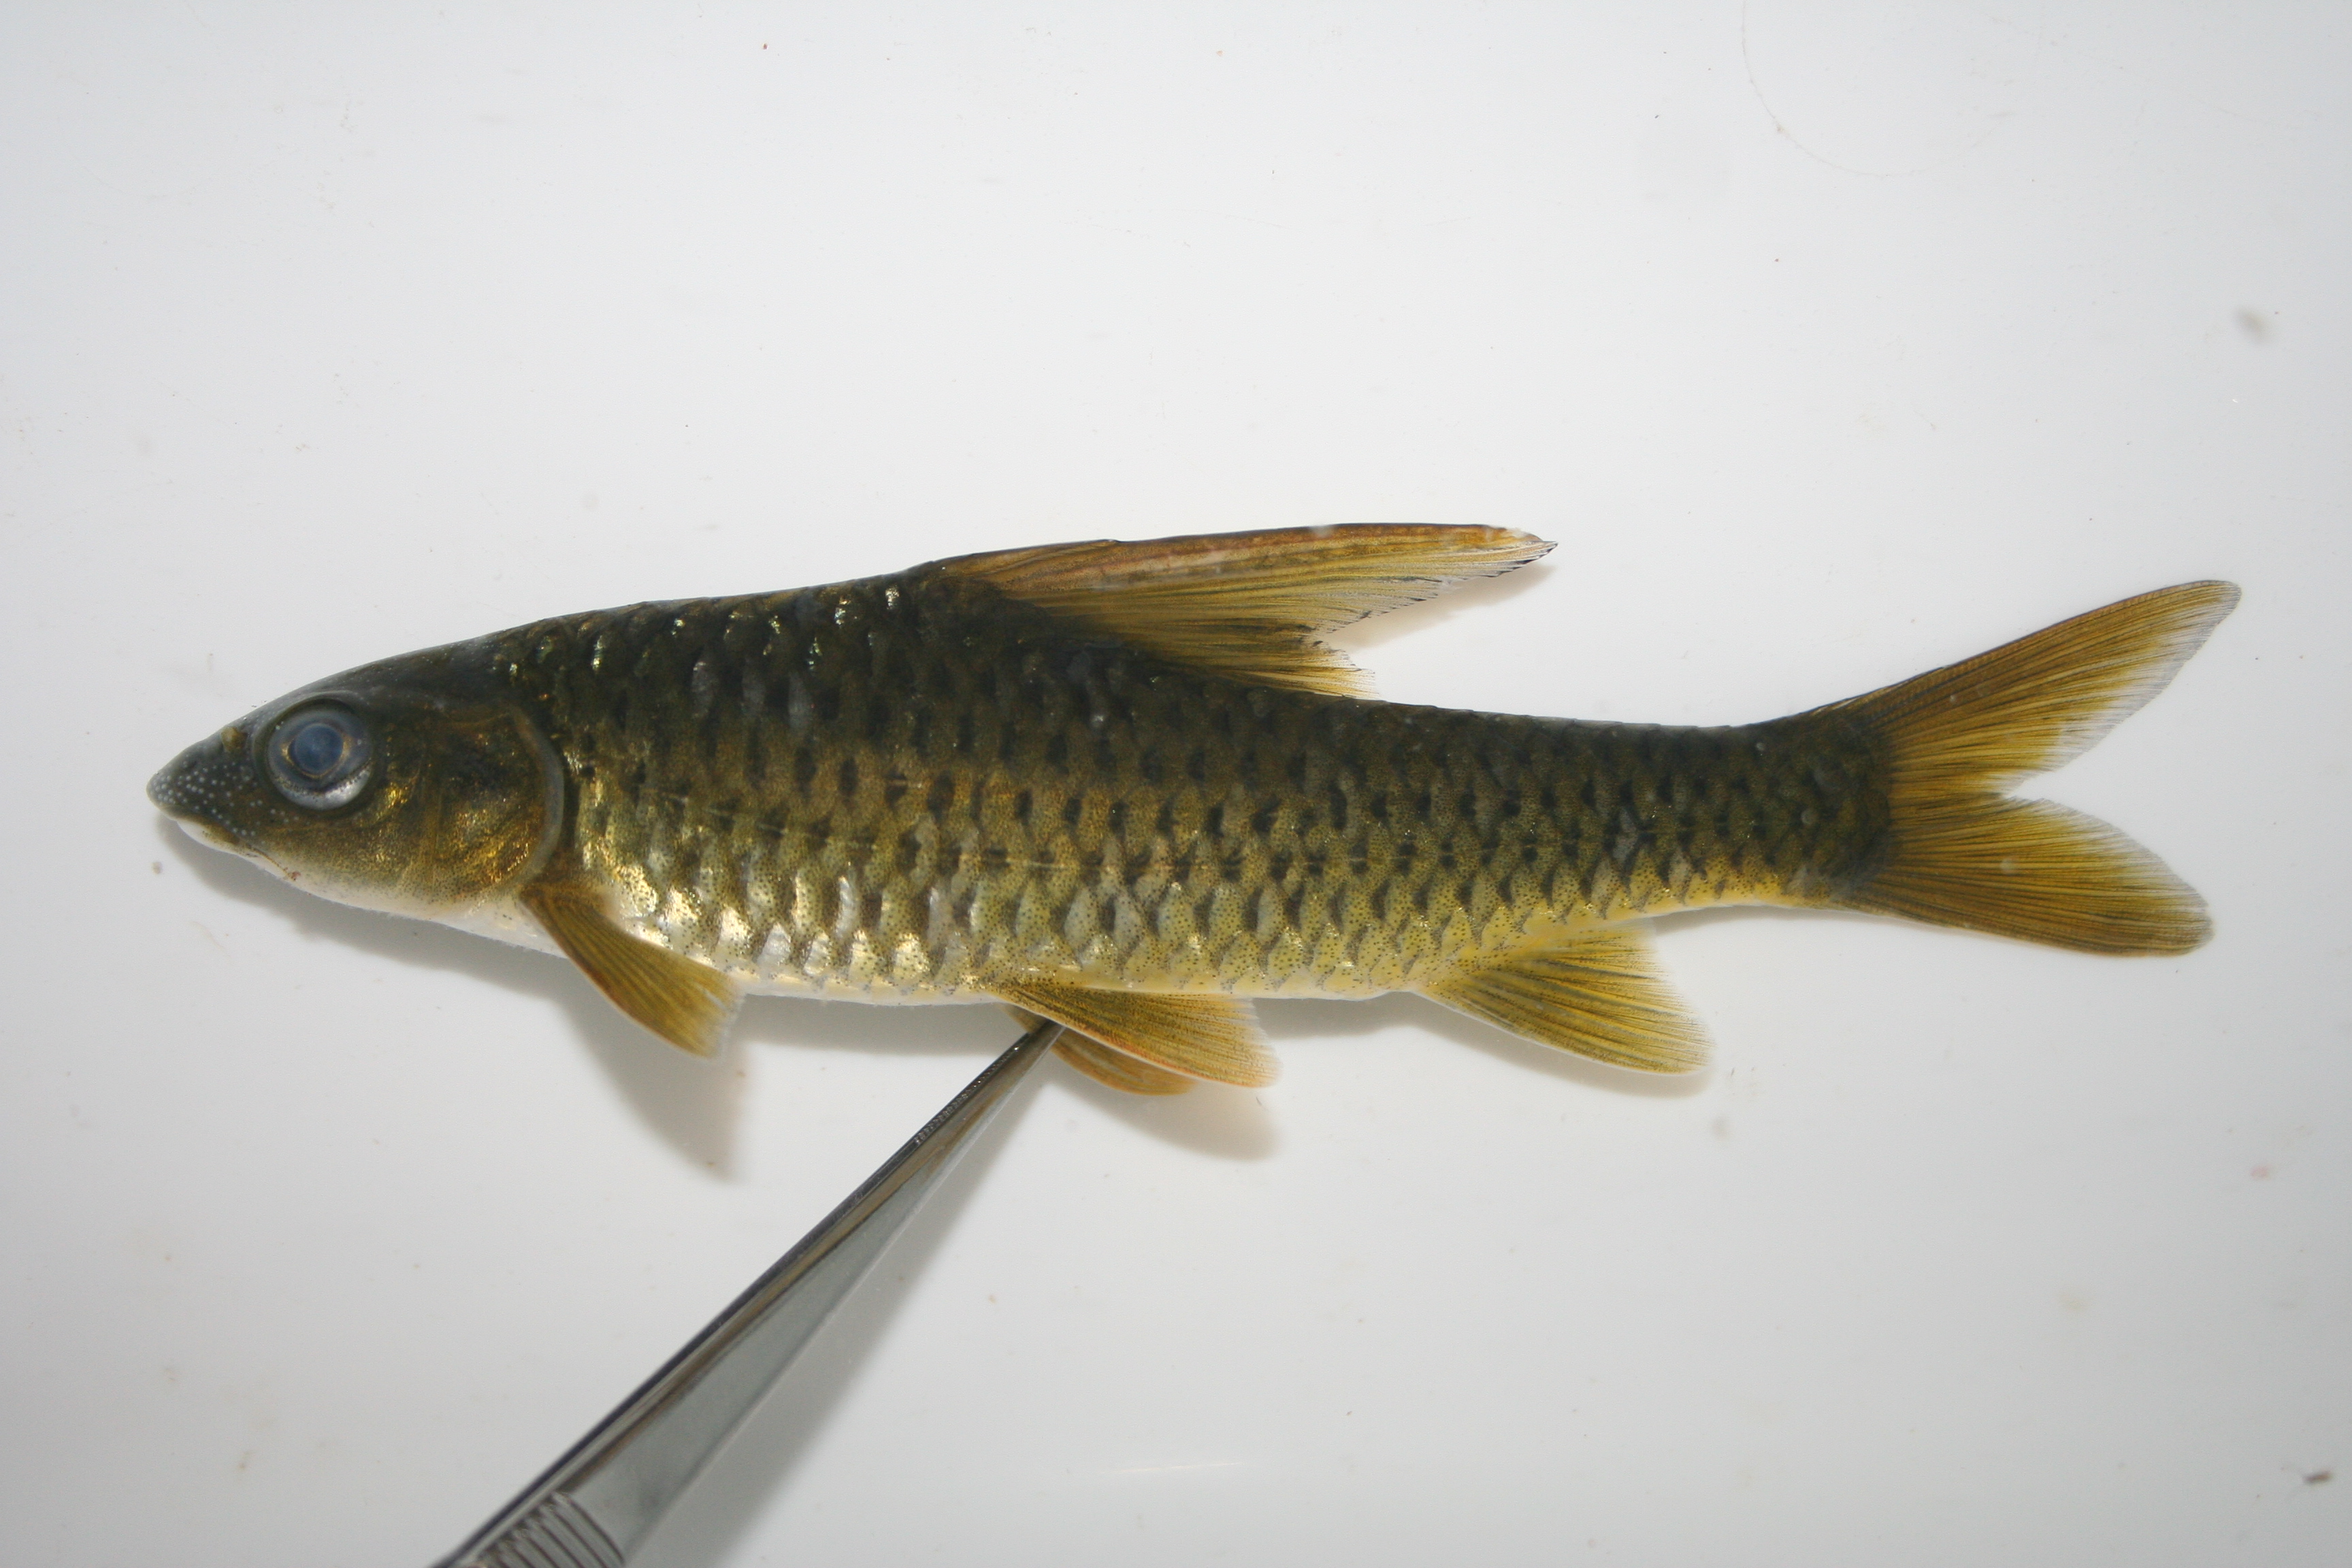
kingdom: Animalia
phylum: Chordata
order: Cypriniformes
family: Cyprinidae
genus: Labeobarbus
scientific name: Labeobarbus rosae
